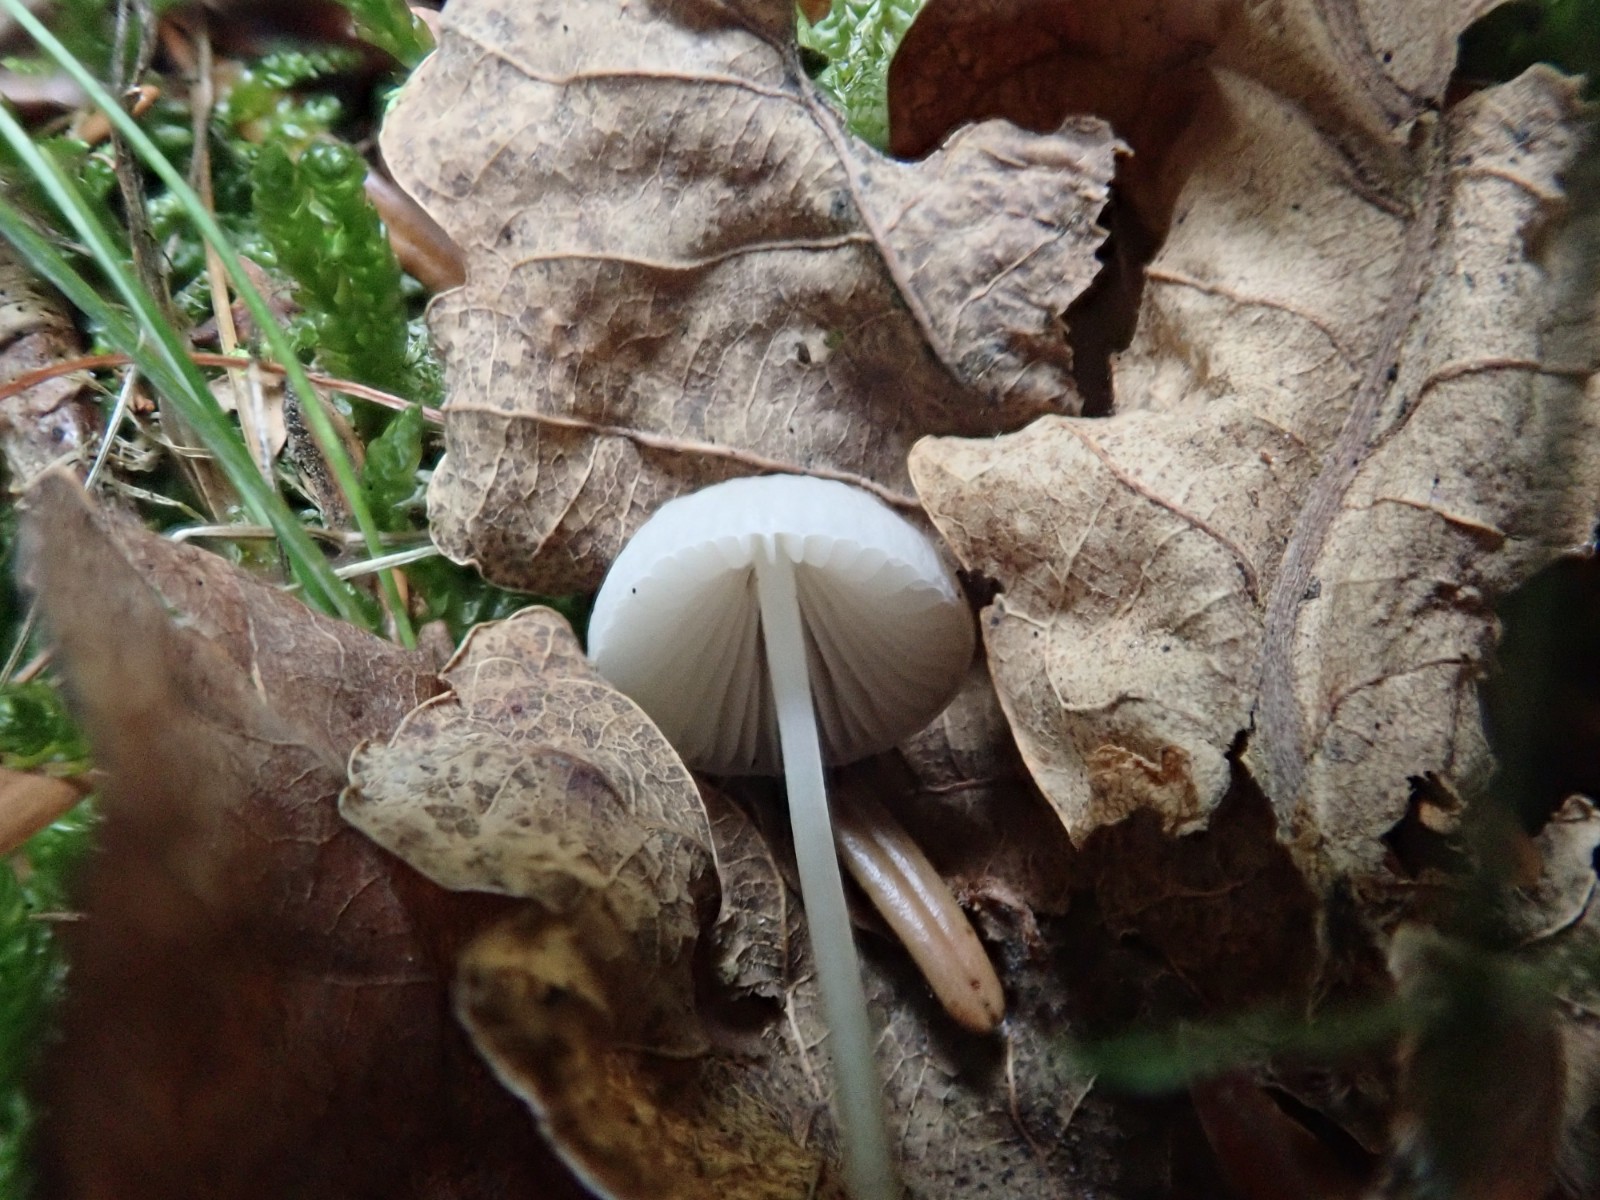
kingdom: Fungi
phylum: Basidiomycota
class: Agaricomycetes
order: Agaricales
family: Mycenaceae
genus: Mycena
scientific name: Mycena vitilis
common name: blankstokket huesvamp
